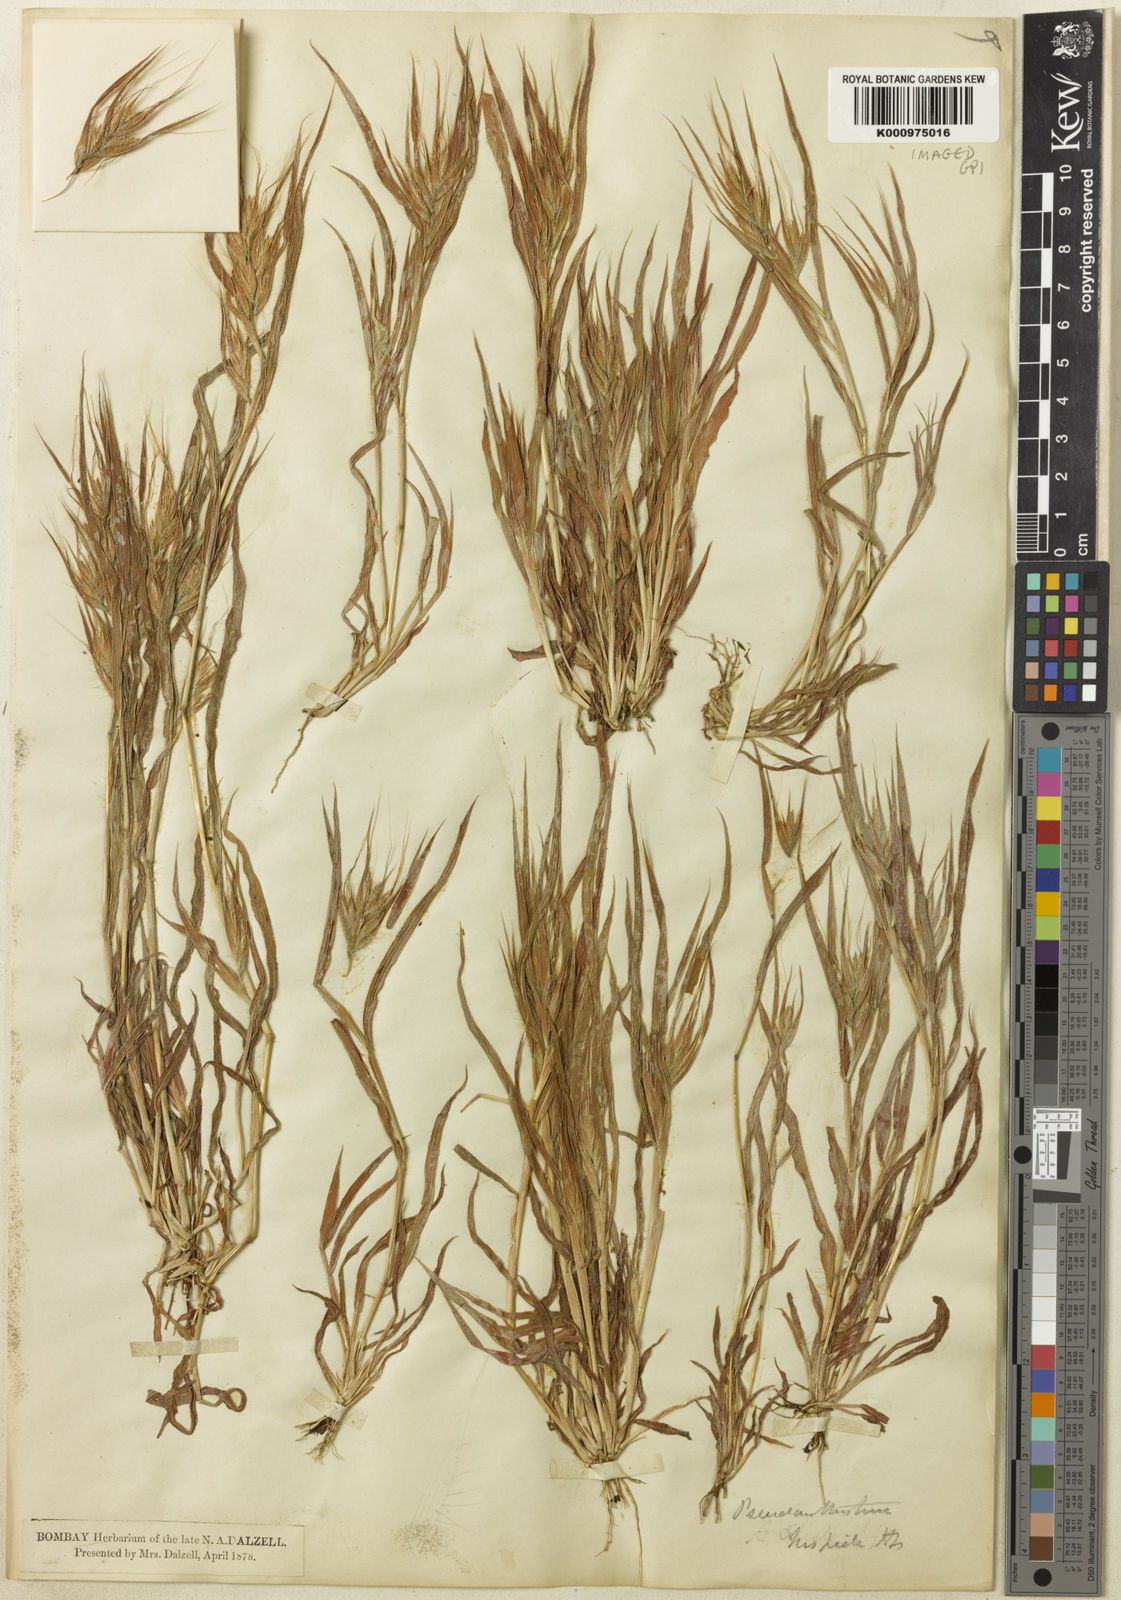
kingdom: Plantae
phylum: Tracheophyta
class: Liliopsida
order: Poales
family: Poaceae
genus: Pseudanthistiria
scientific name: Pseudanthistiria heteroclita
